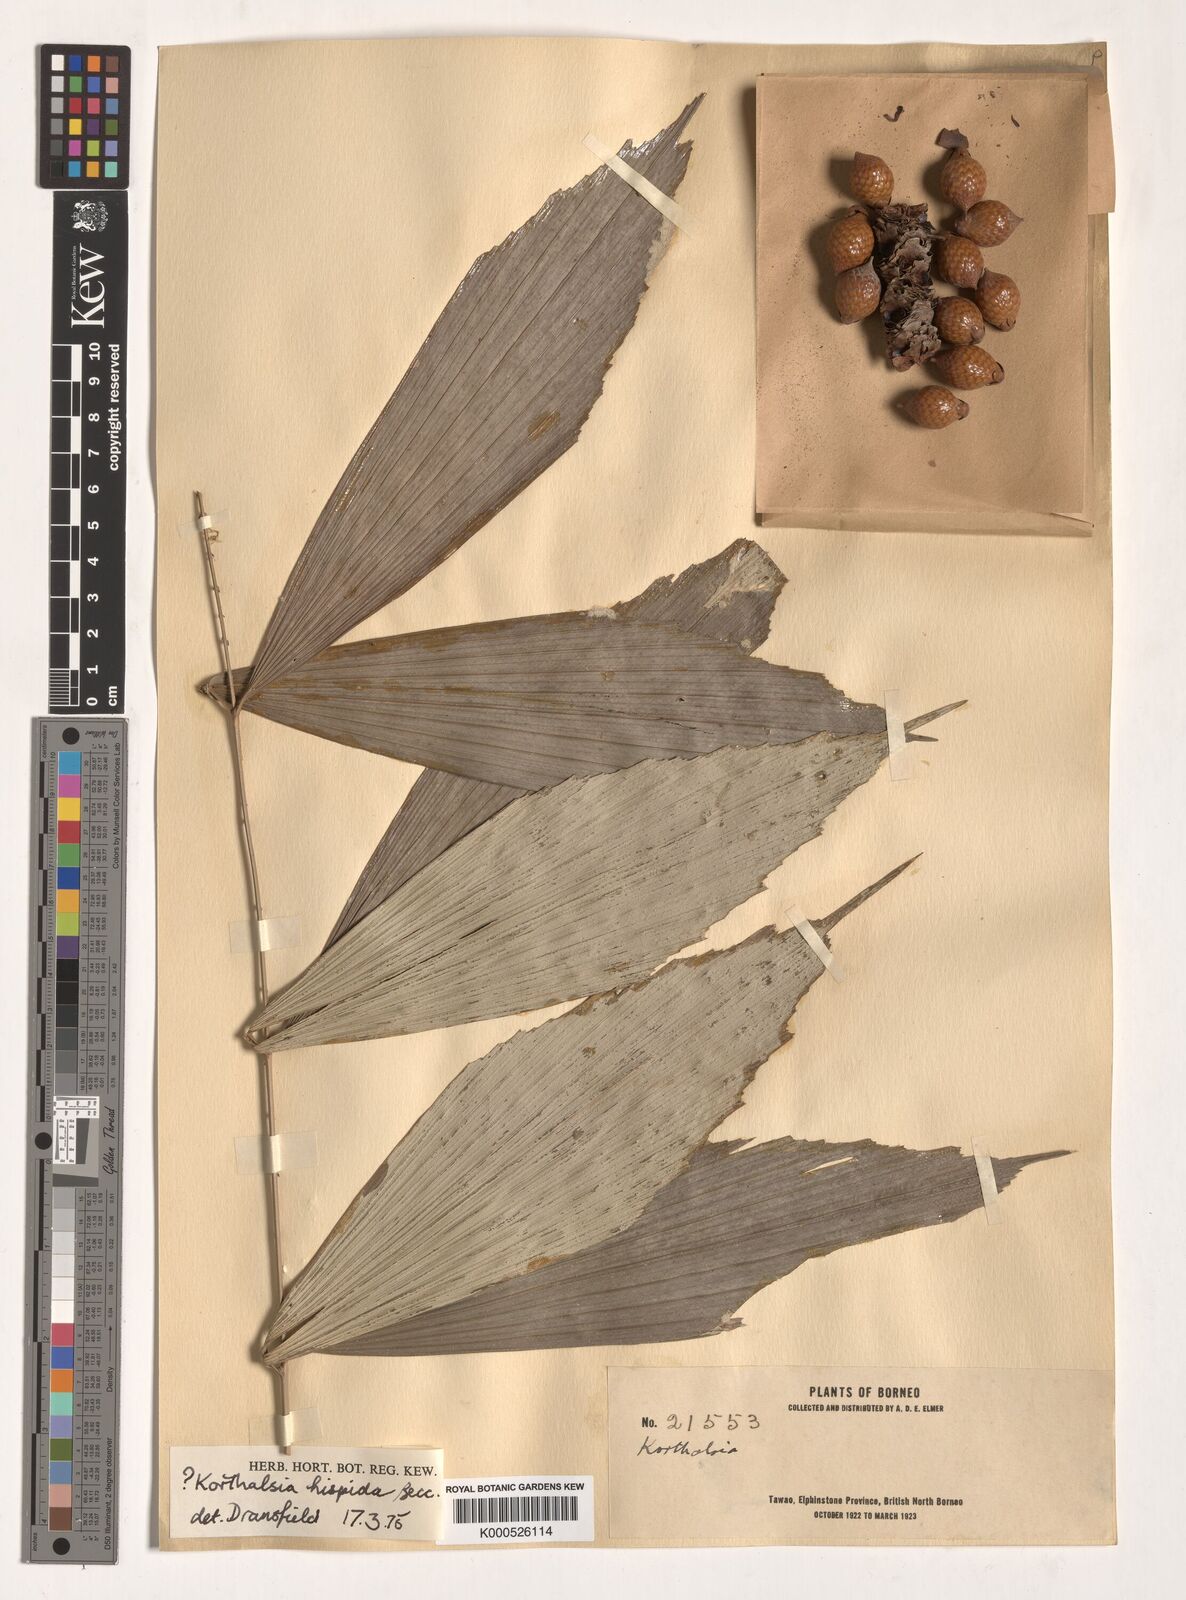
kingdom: Plantae
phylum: Tracheophyta
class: Liliopsida
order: Arecales
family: Arecaceae
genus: Korthalsia
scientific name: Korthalsia hispida
